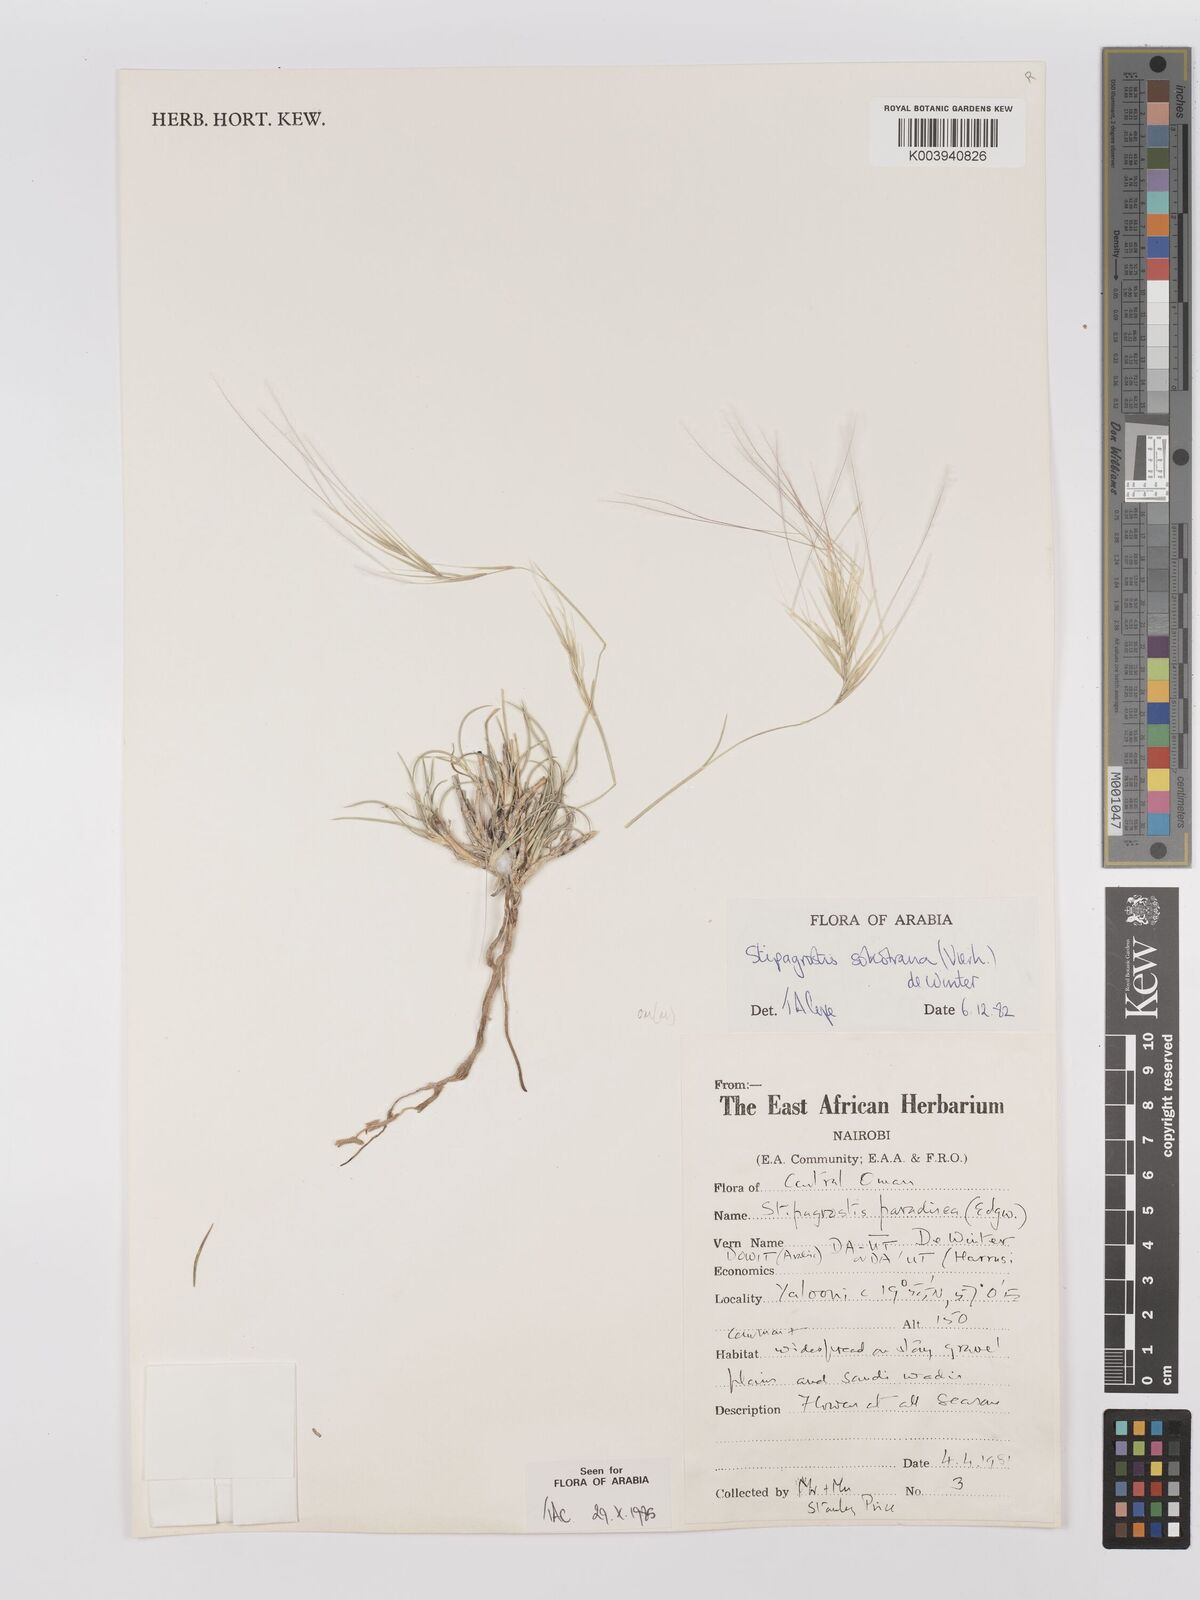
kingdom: Plantae
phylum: Tracheophyta
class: Liliopsida
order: Poales
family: Poaceae
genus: Stipagrostis
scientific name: Stipagrostis sokotrana
